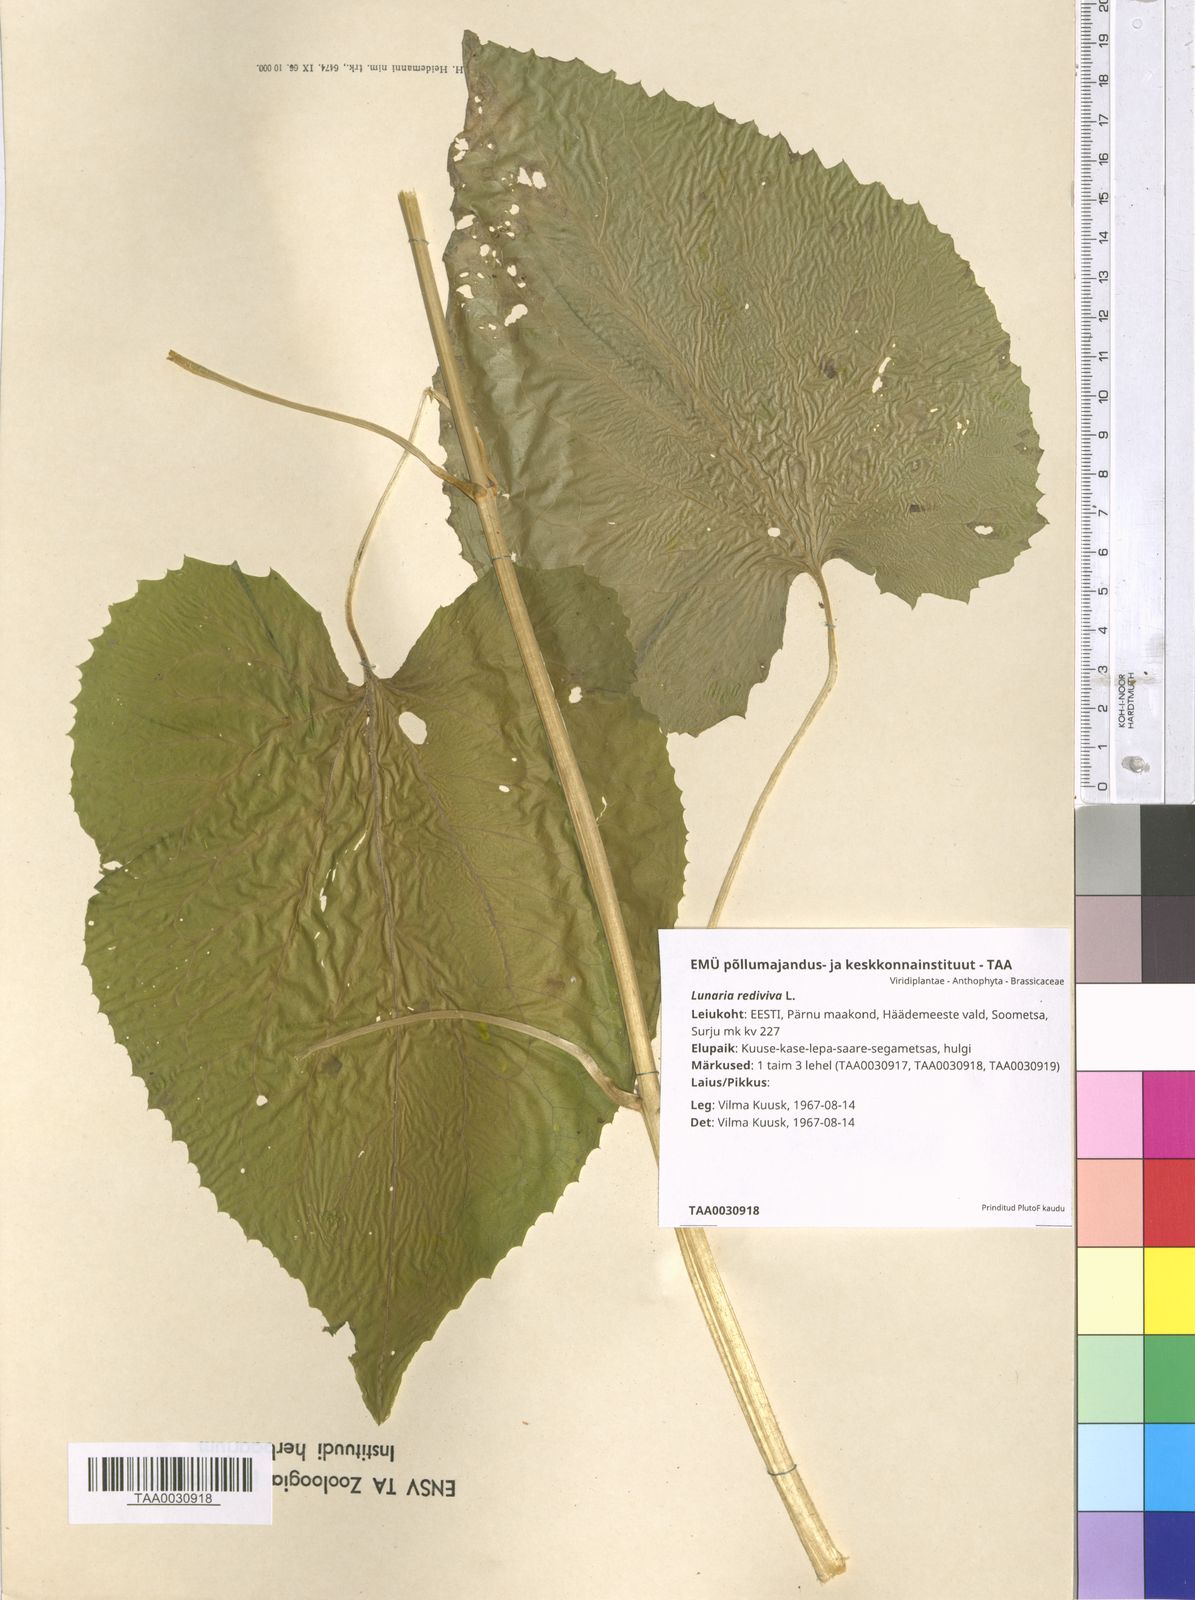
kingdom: Plantae
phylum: Tracheophyta
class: Magnoliopsida
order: Brassicales
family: Brassicaceae
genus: Lunaria
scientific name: Lunaria rediviva
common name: Perennial honesty
